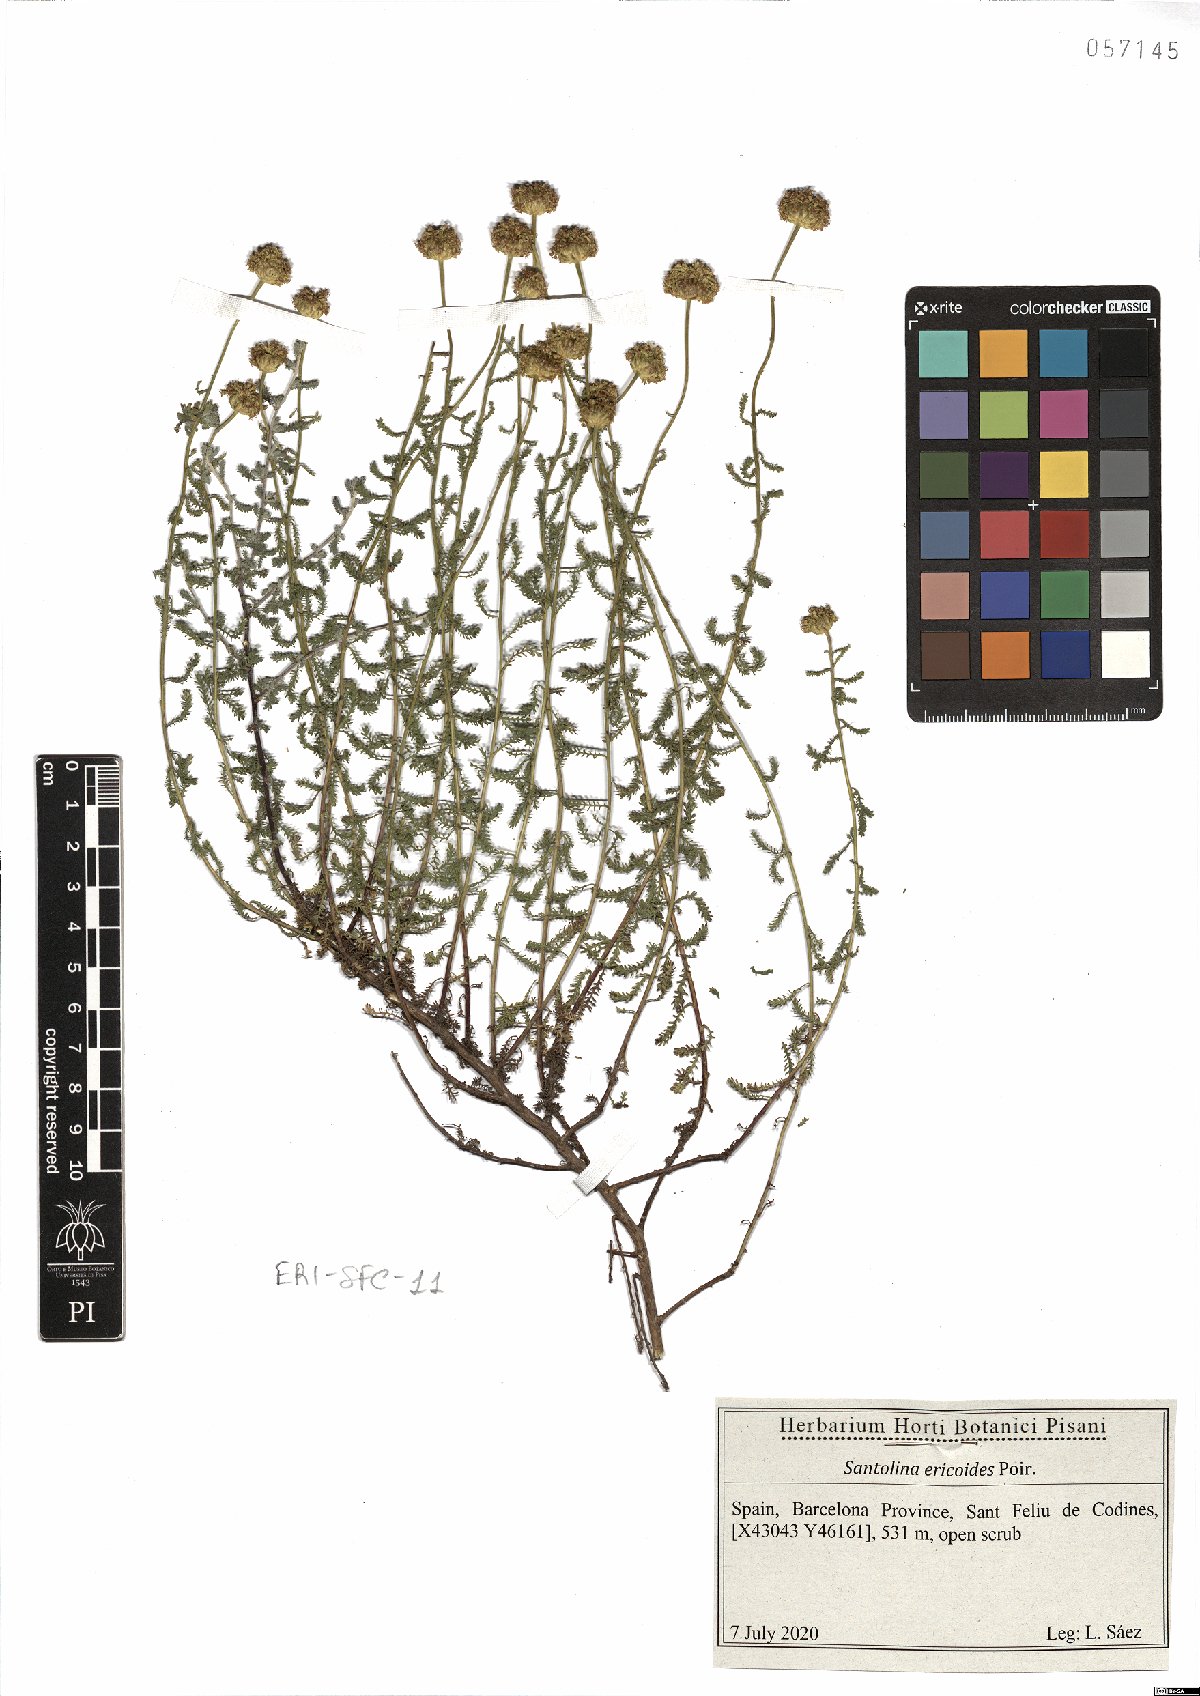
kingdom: Plantae
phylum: Tracheophyta
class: Magnoliopsida
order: Asterales
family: Asteraceae
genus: Santolina
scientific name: Santolina ericoides
